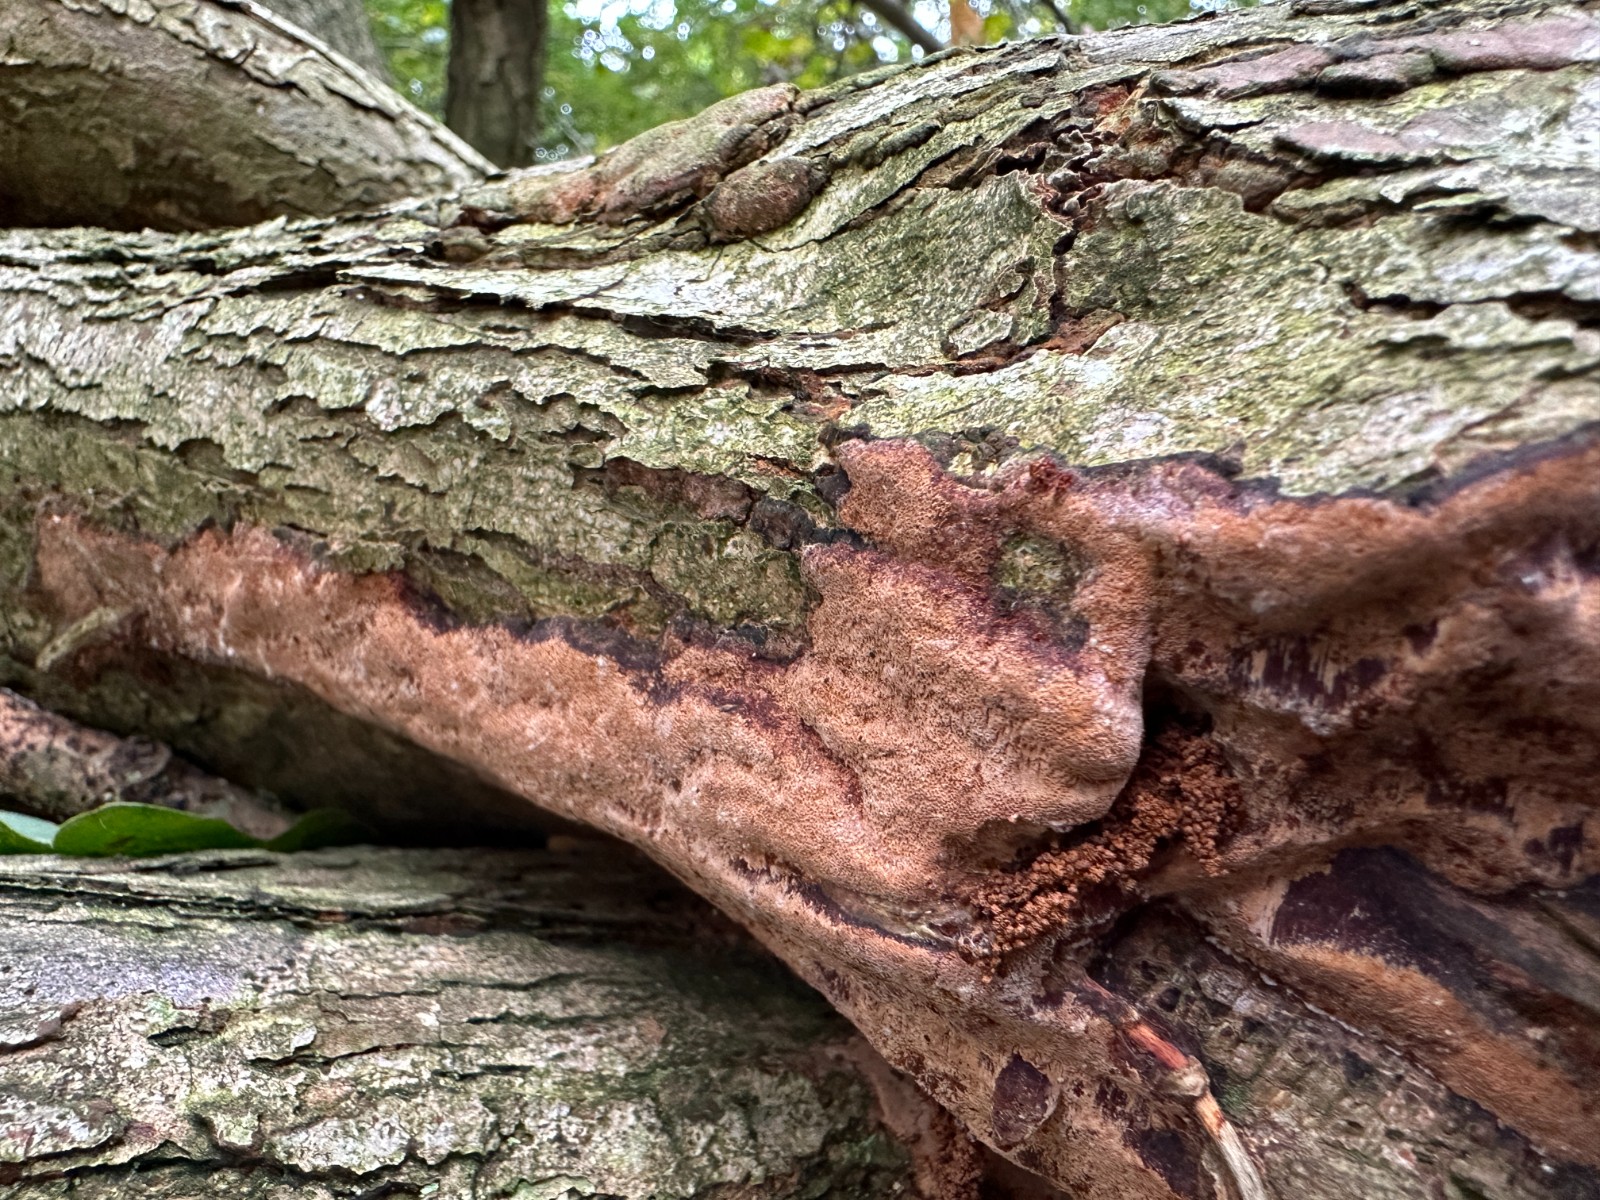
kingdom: Fungi
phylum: Basidiomycota
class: Agaricomycetes
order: Hymenochaetales
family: Hymenochaetaceae
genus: Fuscoporia
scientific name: Fuscoporia ferrea
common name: skorpe-ildporesvamp
